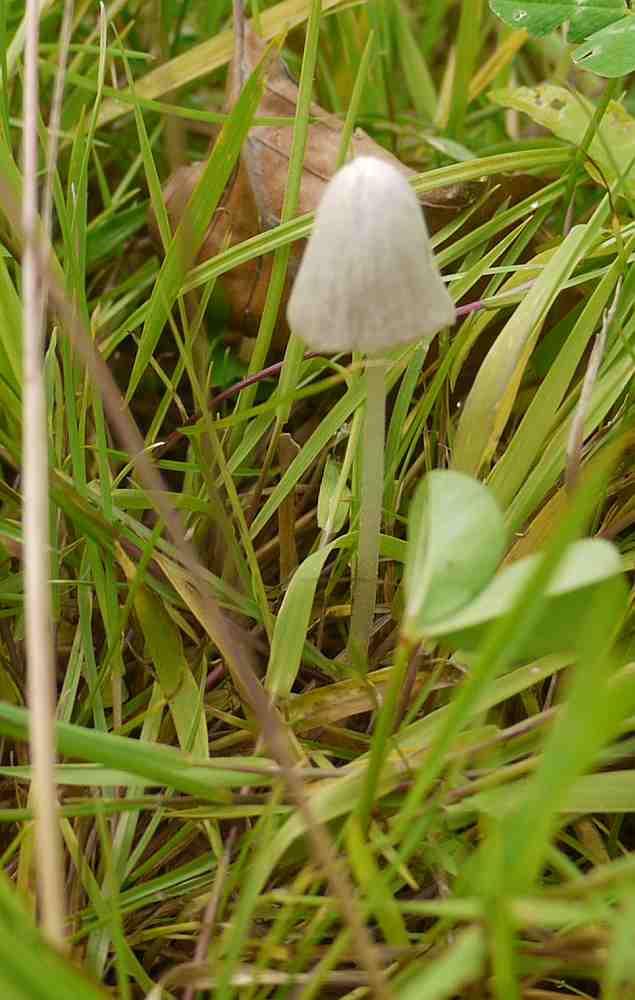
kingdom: Fungi
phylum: Basidiomycota
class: Agaricomycetes
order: Agaricales
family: Bolbitiaceae
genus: Conocybe
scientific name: Conocybe apala
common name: mælkehvid keglehat
